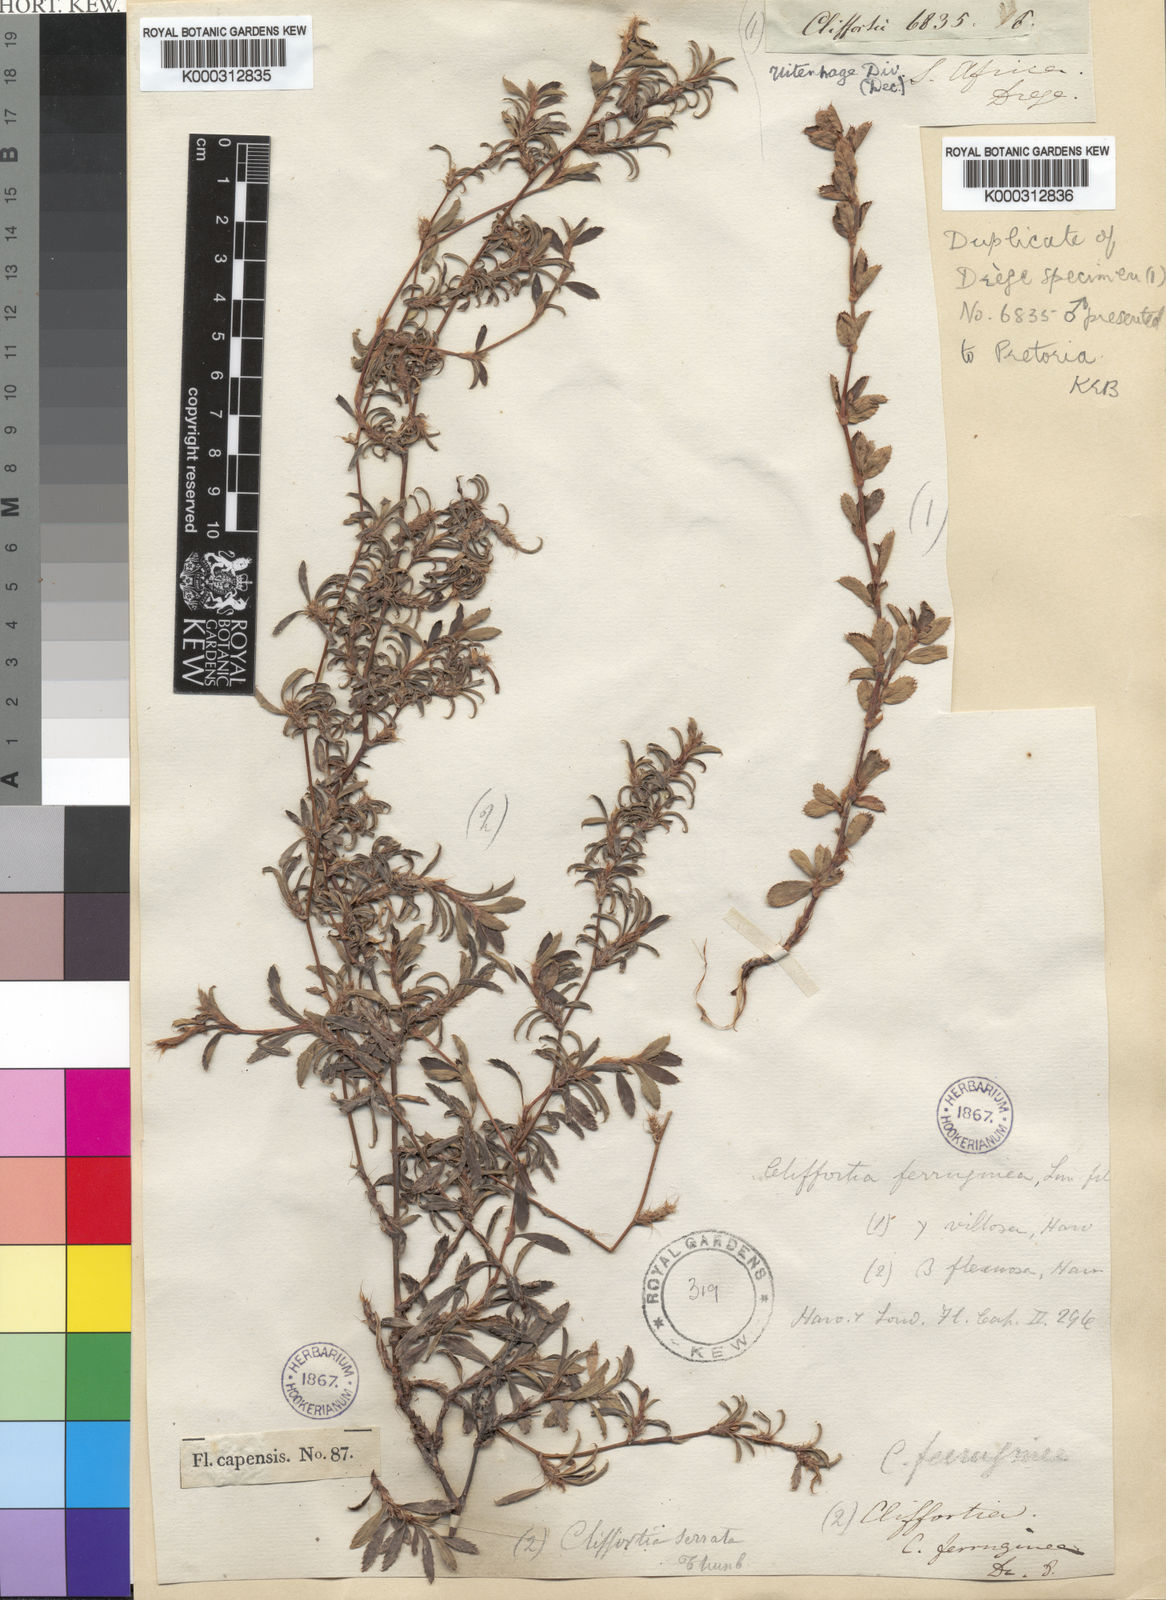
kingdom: Plantae
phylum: Tracheophyta
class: Magnoliopsida
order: Rosales
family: Rosaceae
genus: Cliffortia
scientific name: Cliffortia ferruginea
